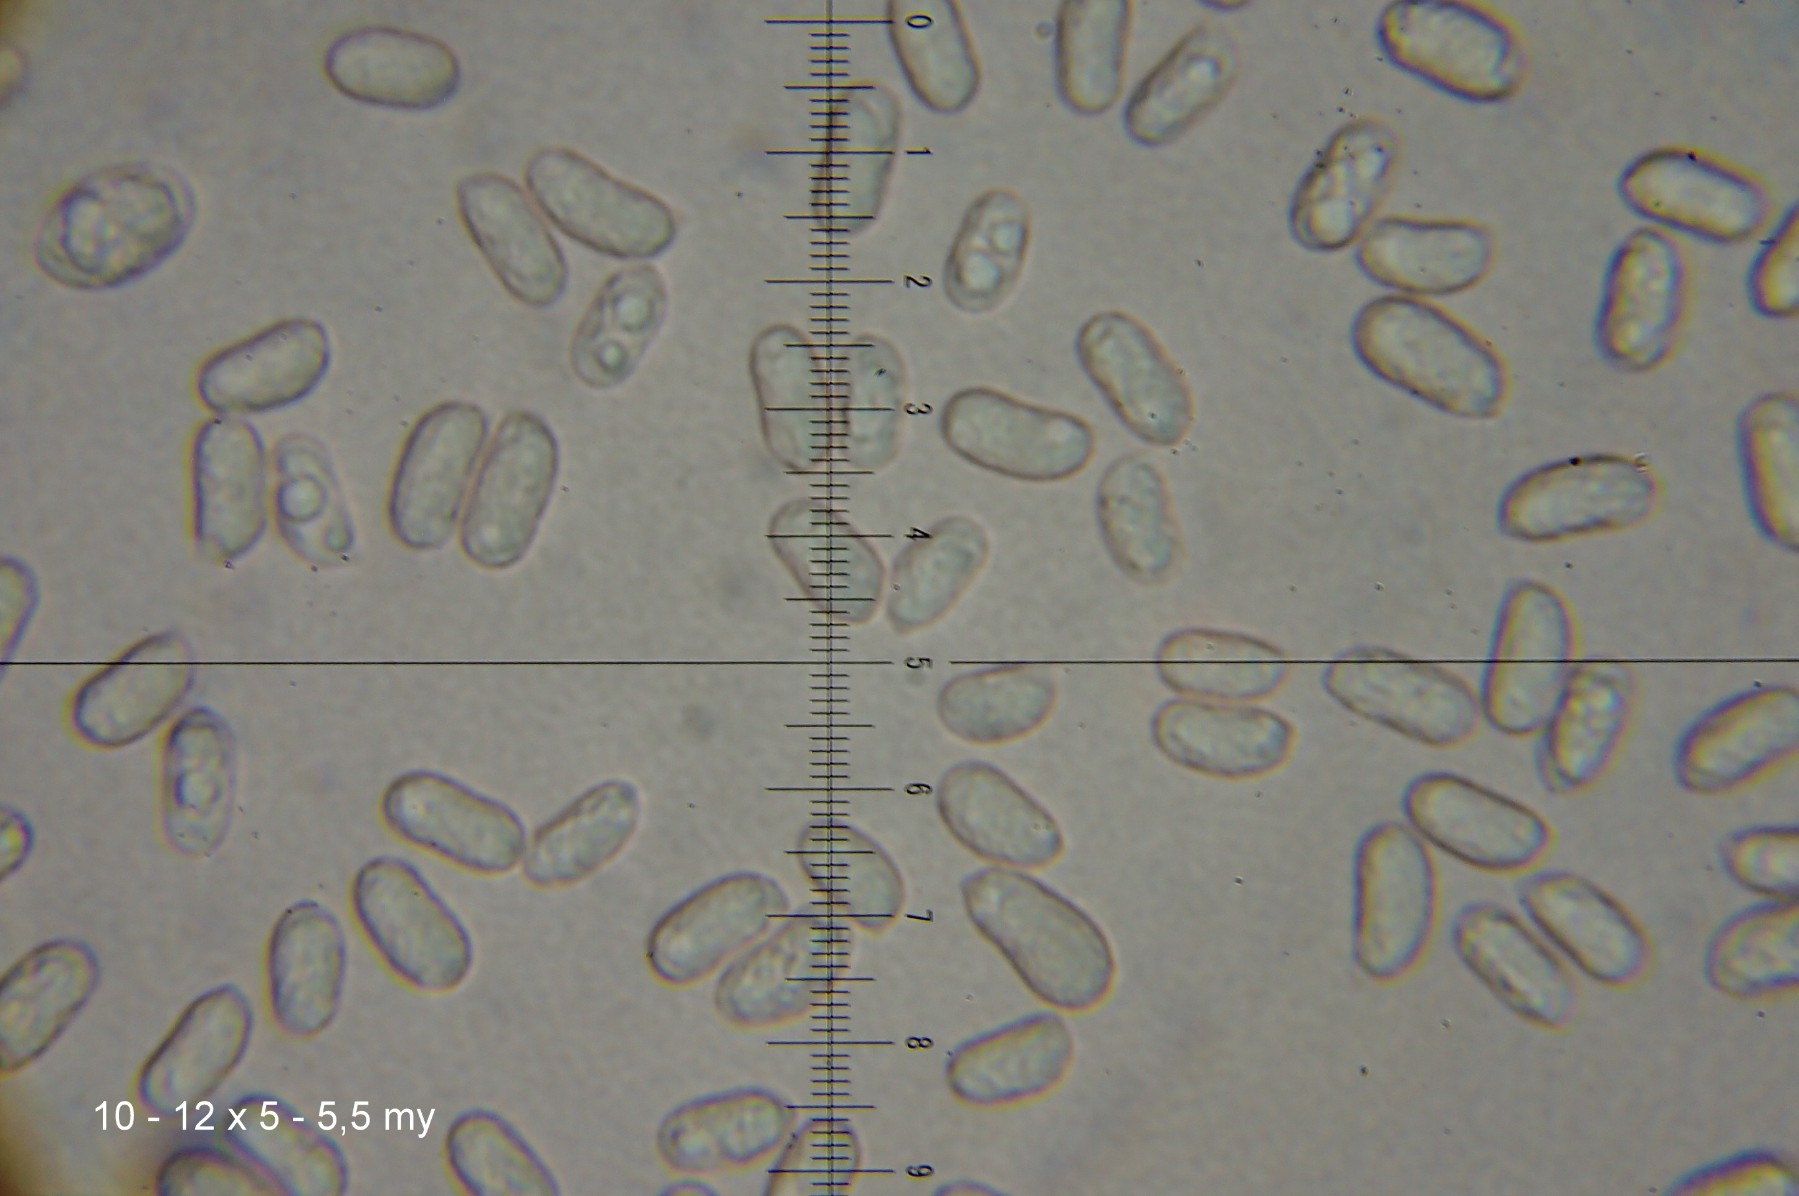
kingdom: Fungi
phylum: Basidiomycota
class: Agaricomycetes
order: Agaricales
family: Hygrophoraceae
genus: Hygrocybe
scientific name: Hygrocybe acutoconica
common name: spidspuklet vokshat
